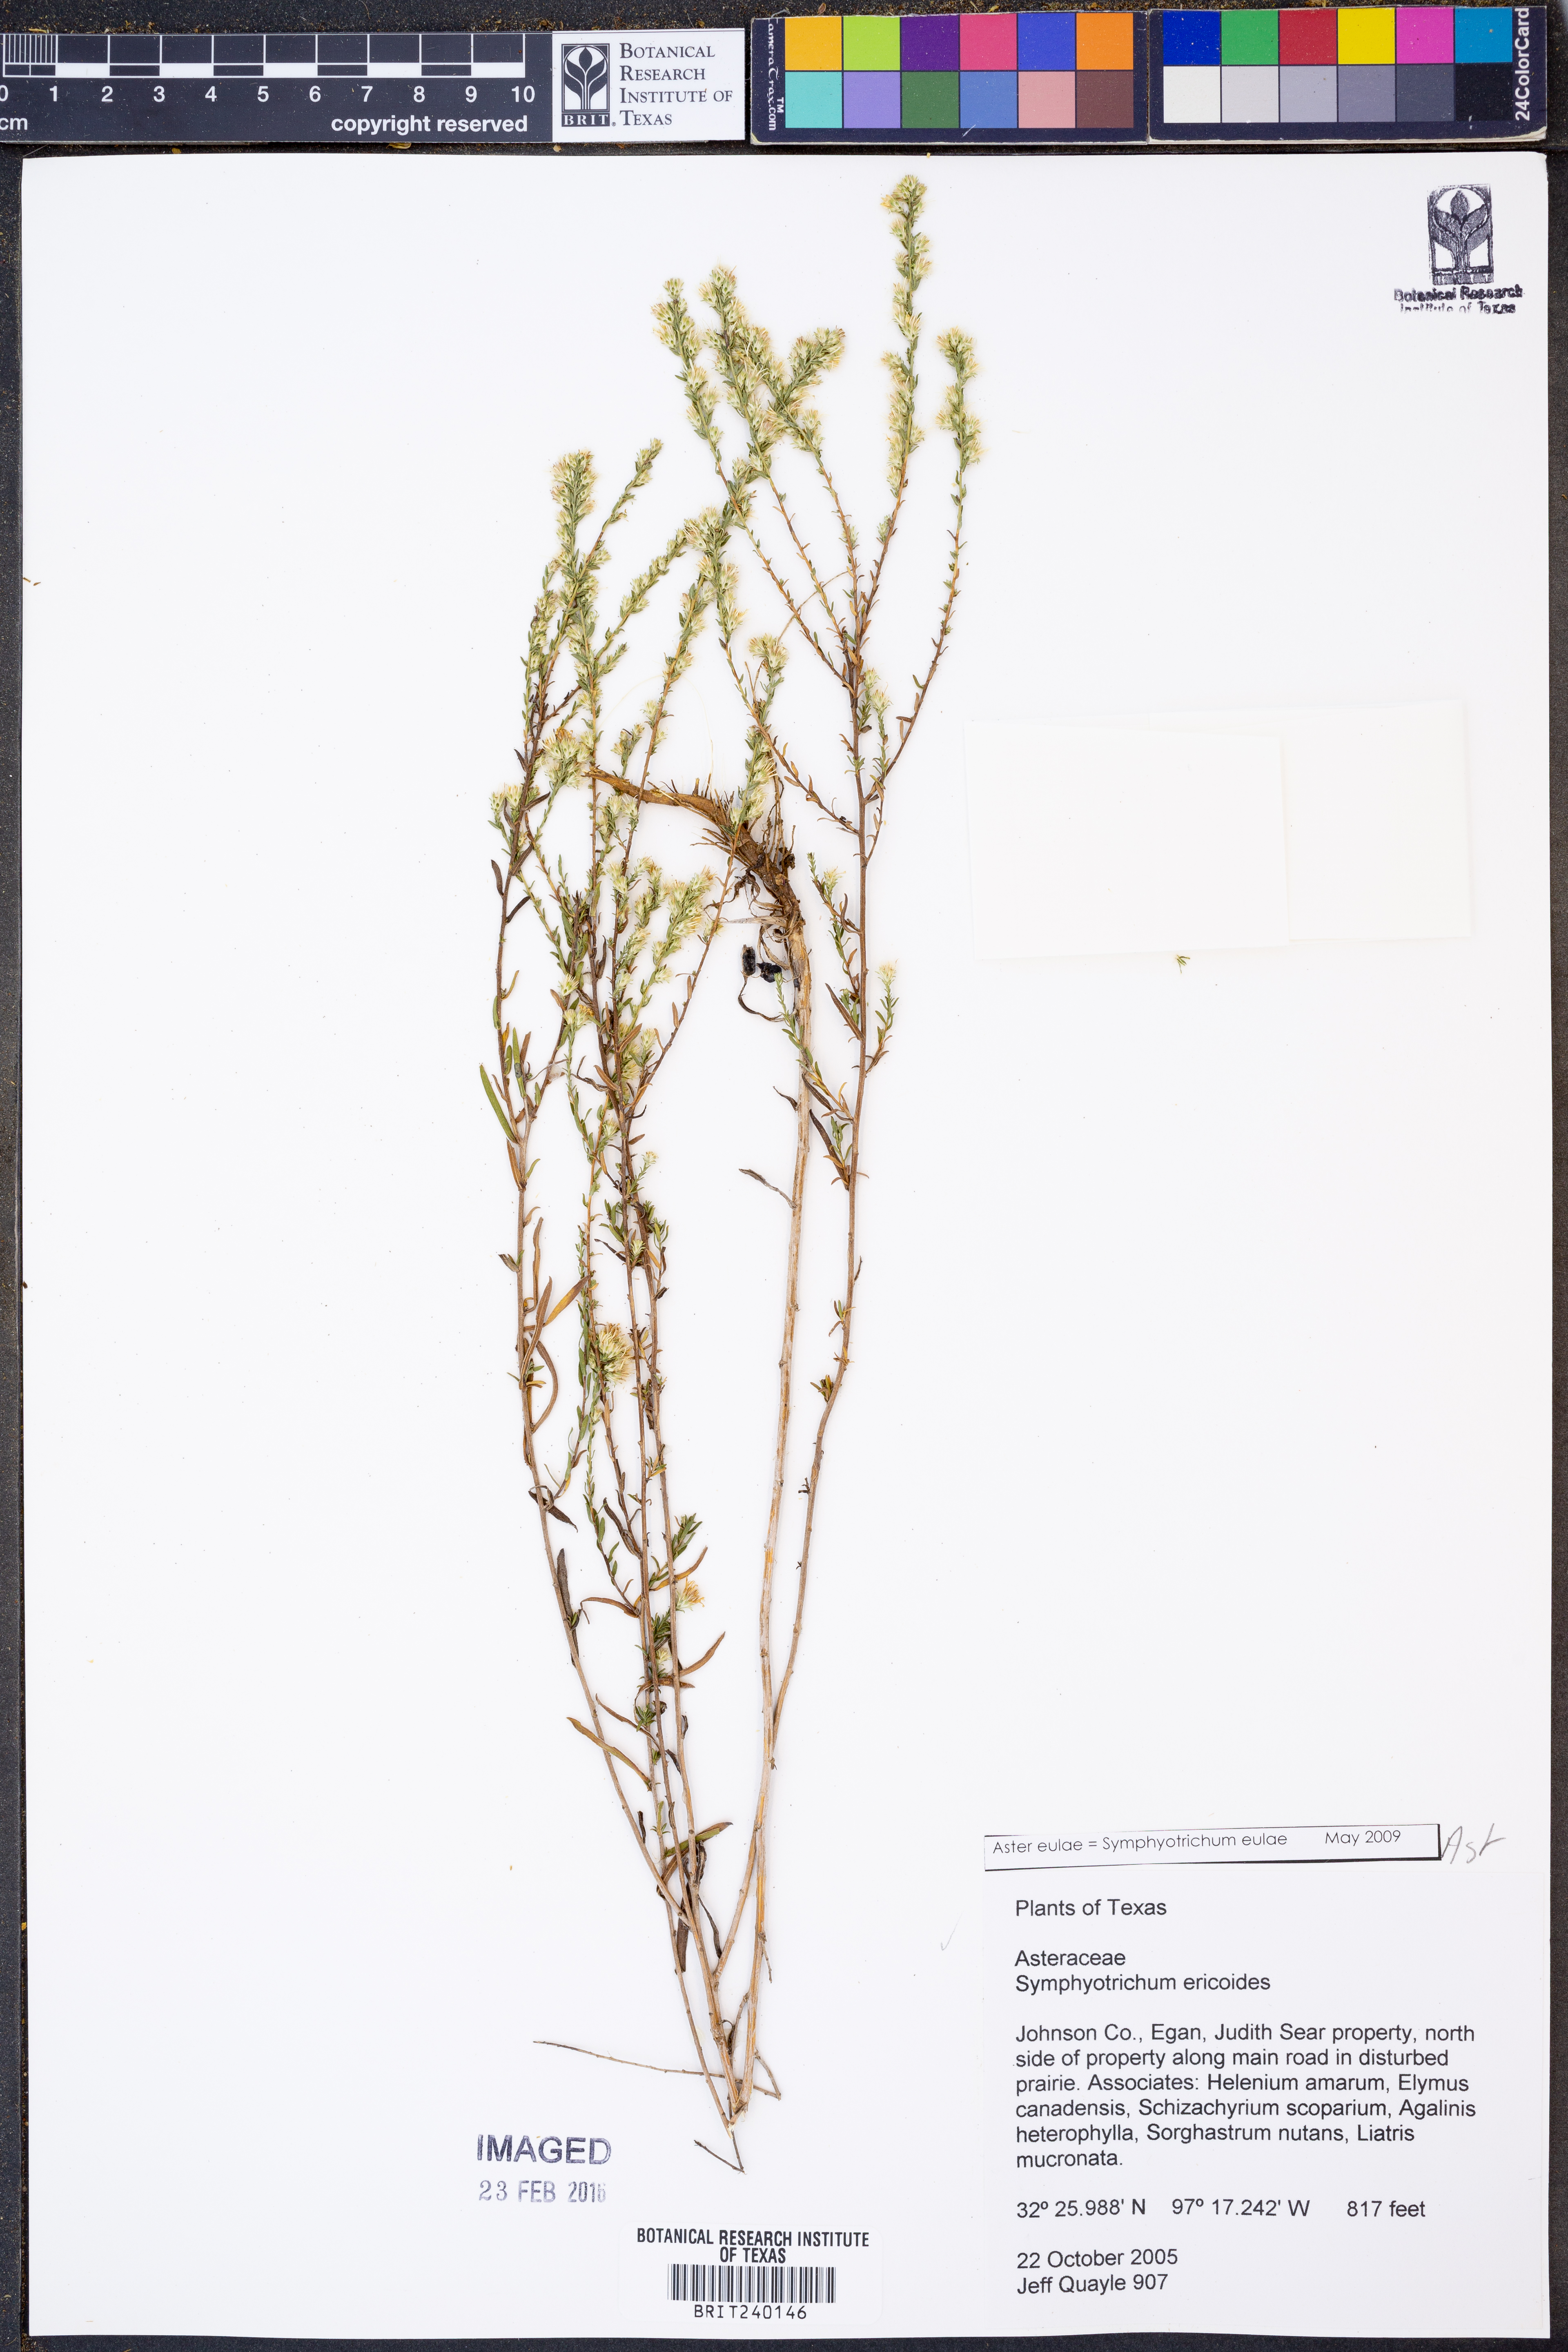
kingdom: Plantae
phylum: Tracheophyta
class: Magnoliopsida
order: Asterales
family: Asteraceae
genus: Symphyotrichum
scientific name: Symphyotrichum eulae
